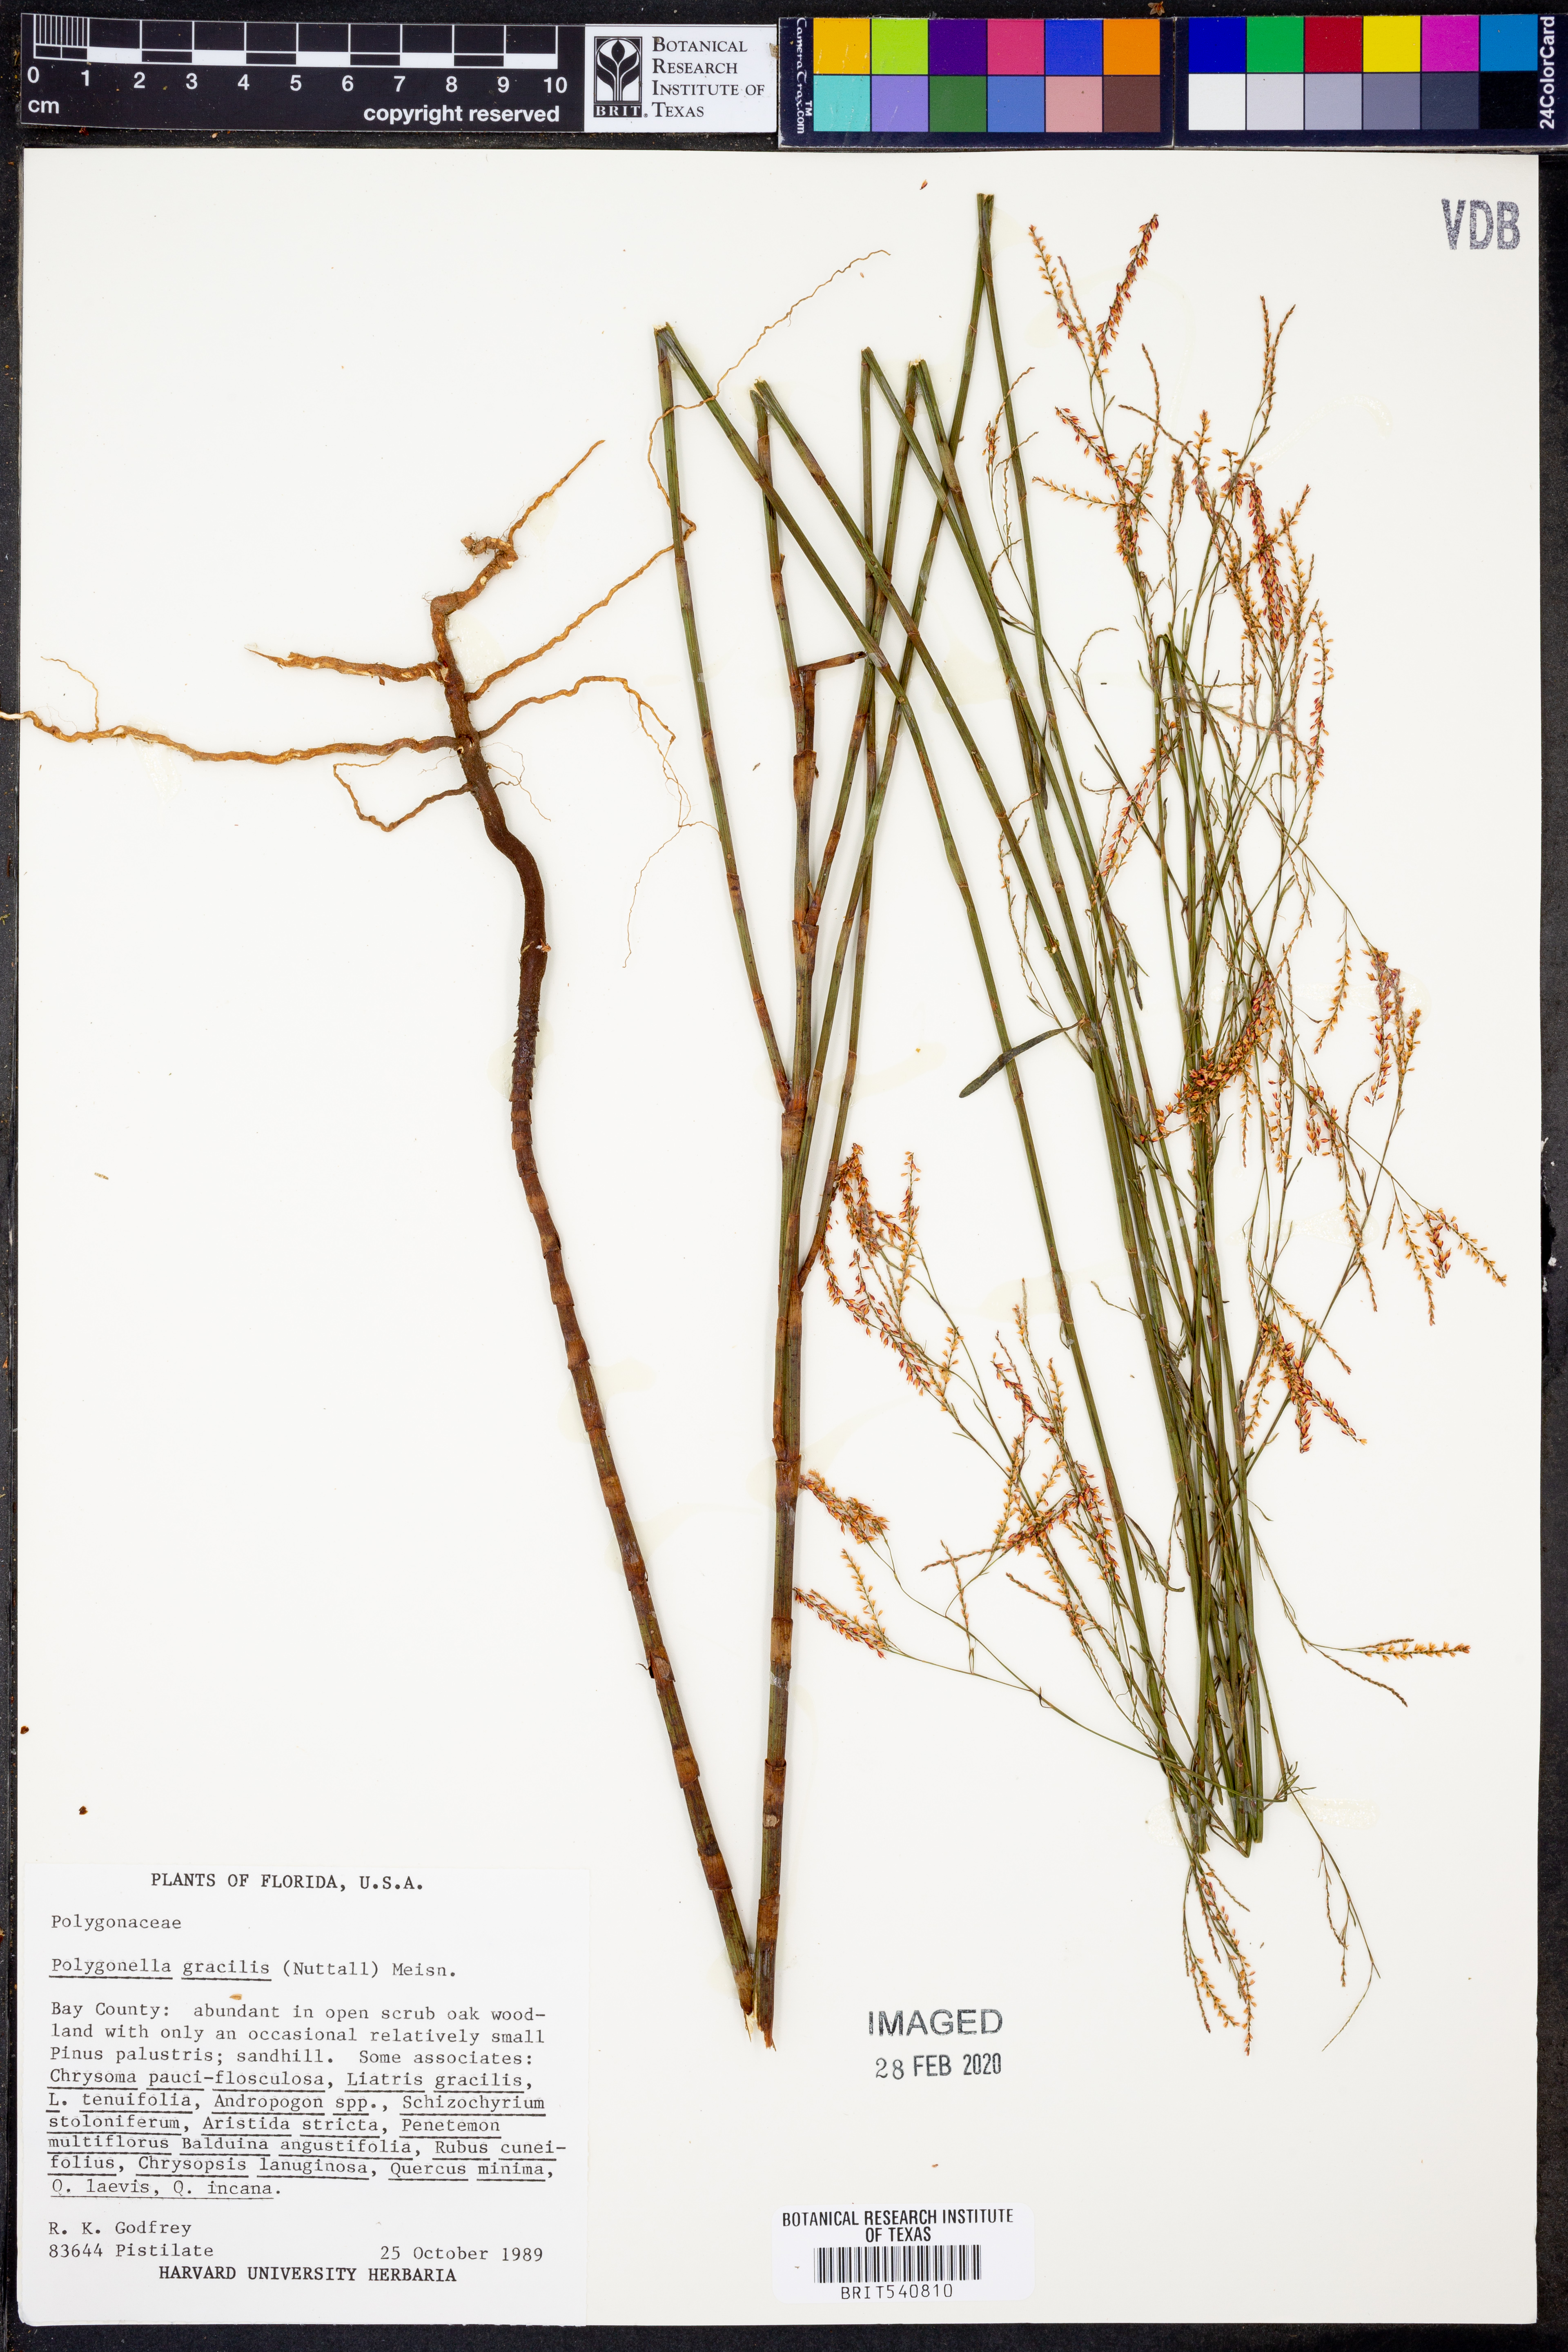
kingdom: Plantae
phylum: Tracheophyta
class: Magnoliopsida
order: Caryophyllales
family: Polygonaceae
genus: Polygonella
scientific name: Polygonella gracilis
